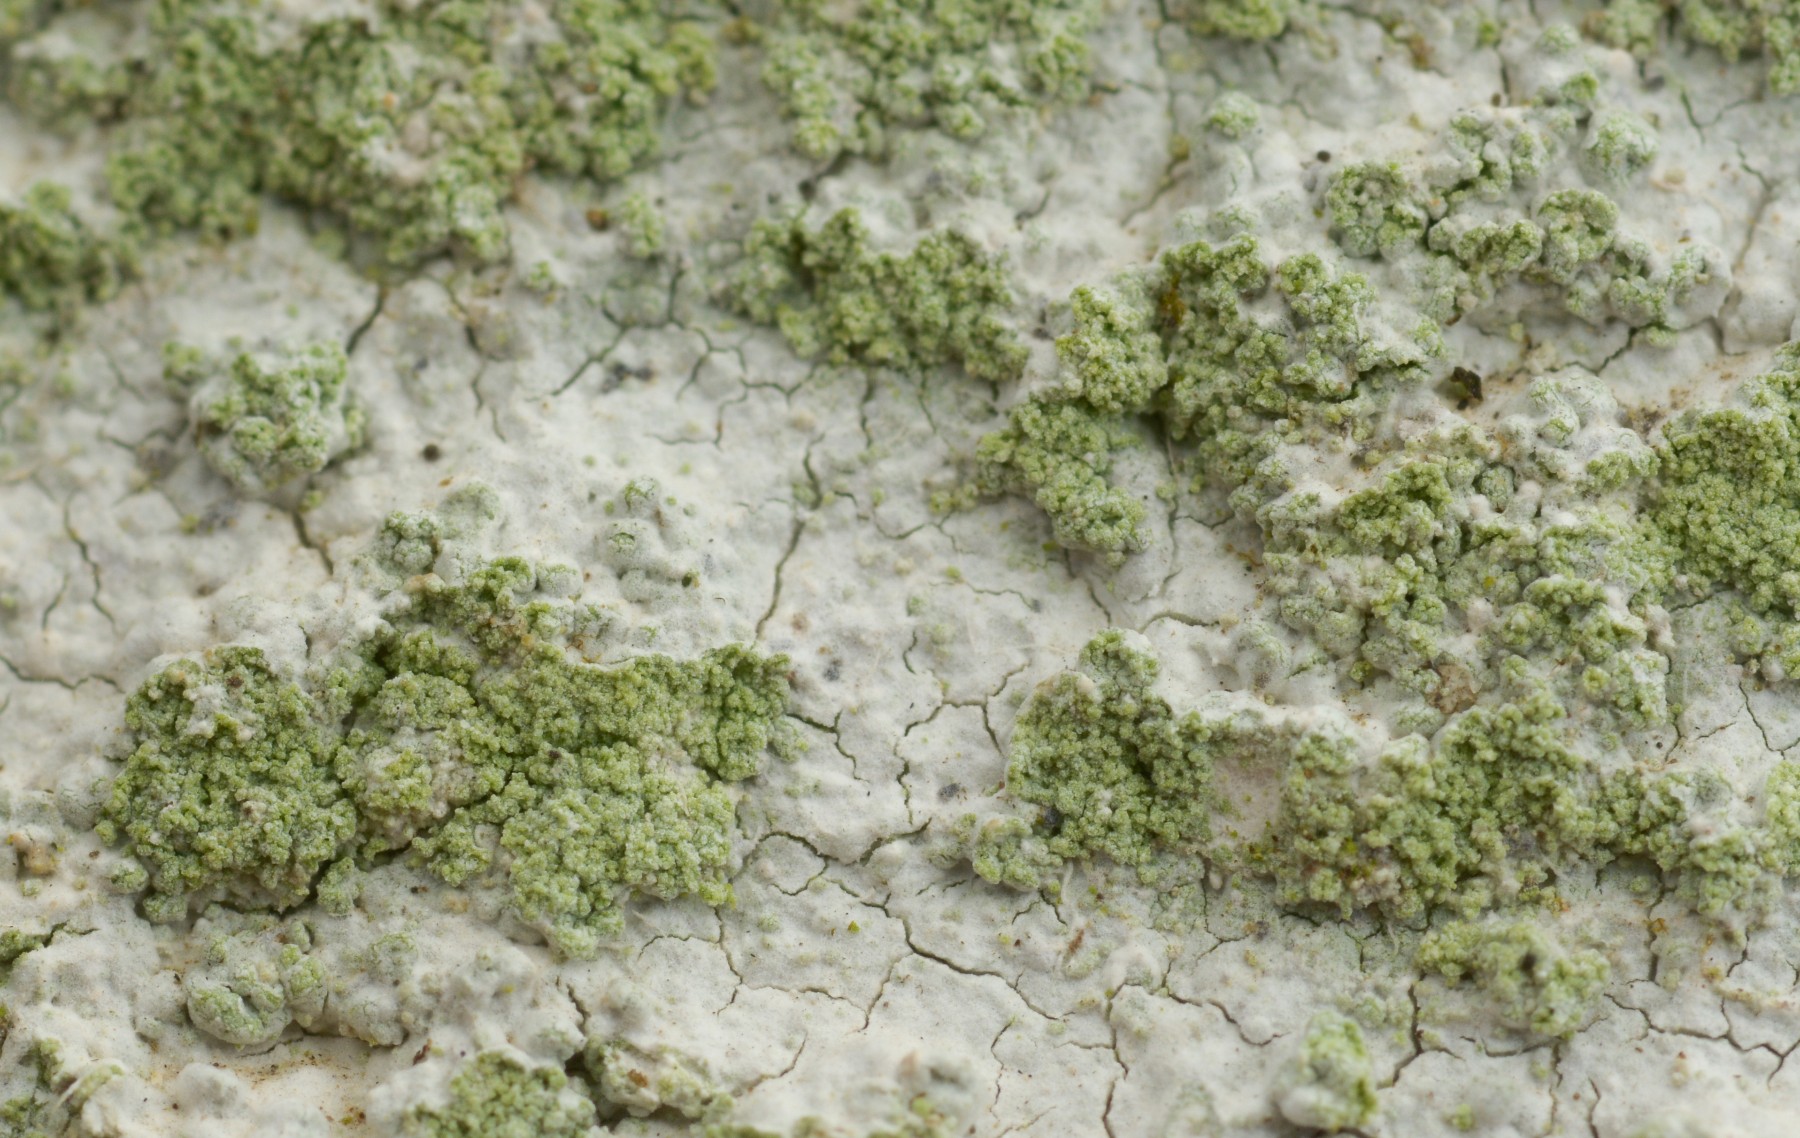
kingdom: Fungi
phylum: Ascomycota
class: Lecanoromycetes
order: Ostropales
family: Phlyctidaceae
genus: Phlyctis
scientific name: Phlyctis argena
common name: almindelig sølvlav
